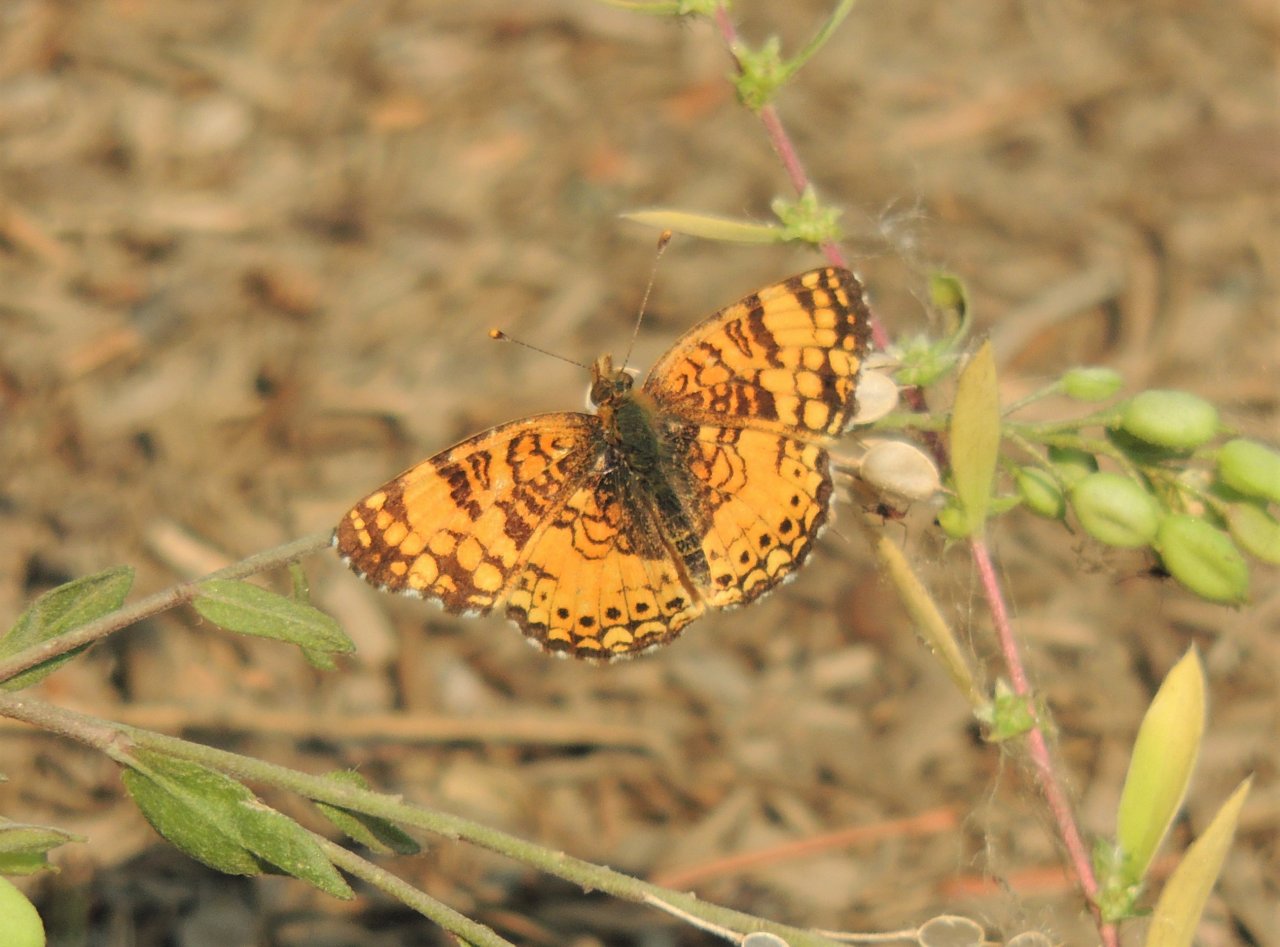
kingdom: Animalia
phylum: Arthropoda
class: Insecta
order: Lepidoptera
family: Nymphalidae
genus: Eresia
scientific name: Eresia aveyrona
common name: Mylitta Crescent
